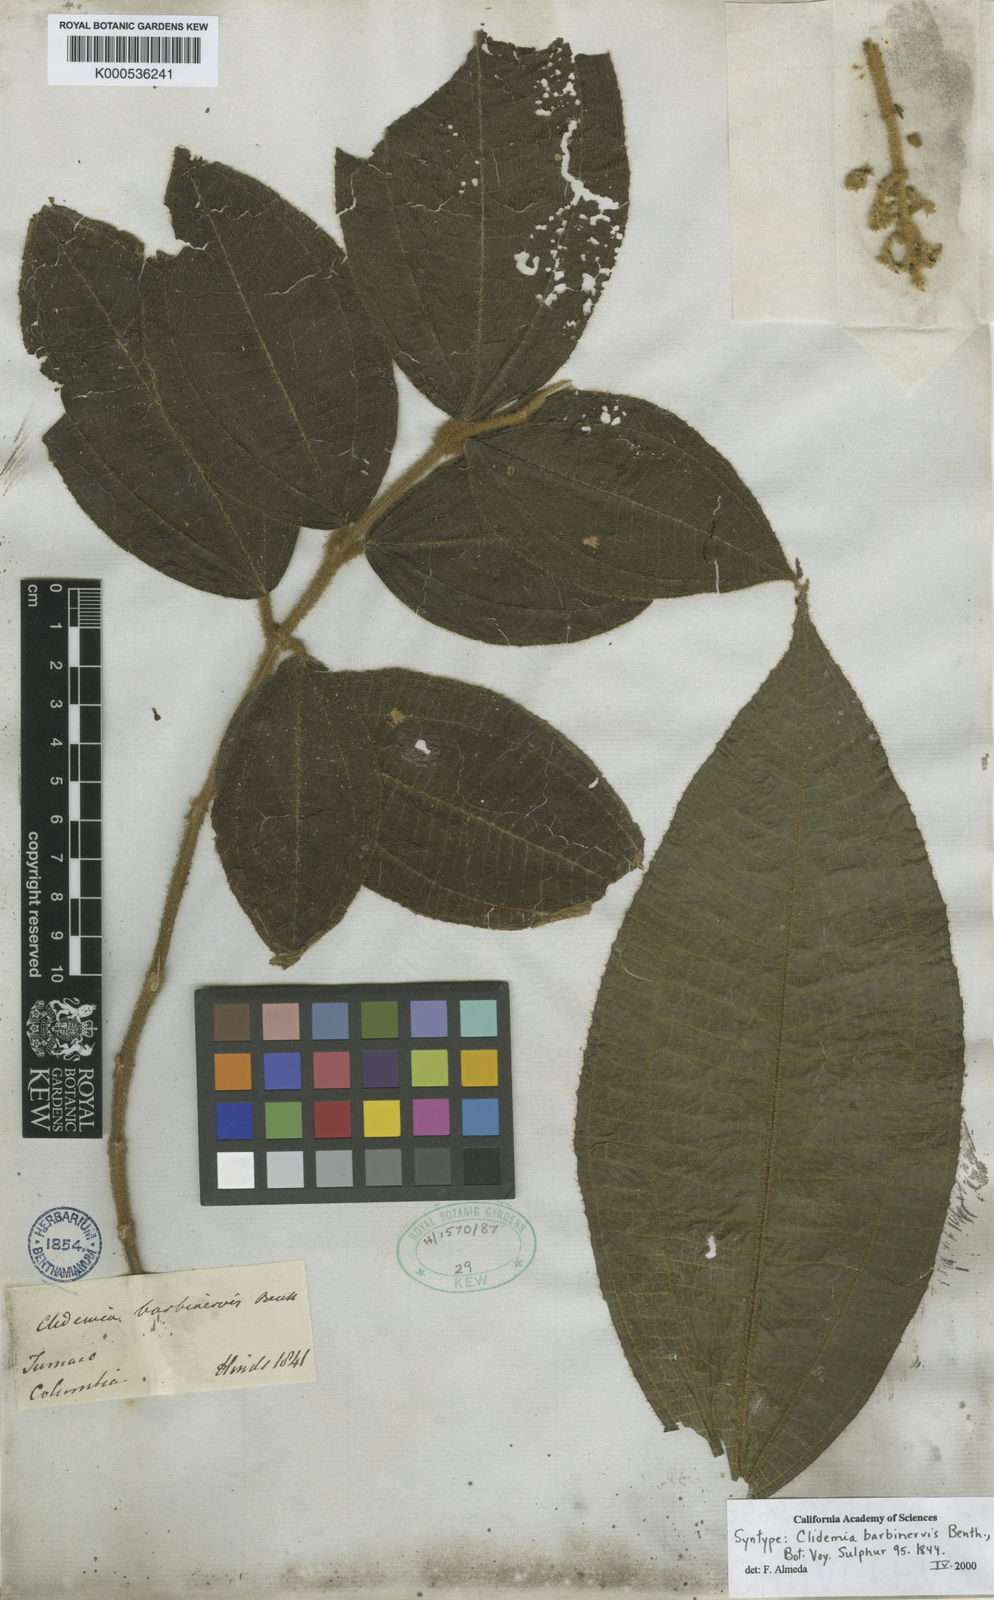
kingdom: Plantae
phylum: Tracheophyta
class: Magnoliopsida
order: Myrtales
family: Melastomataceae
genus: Miconia
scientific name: Miconia barbinervis
